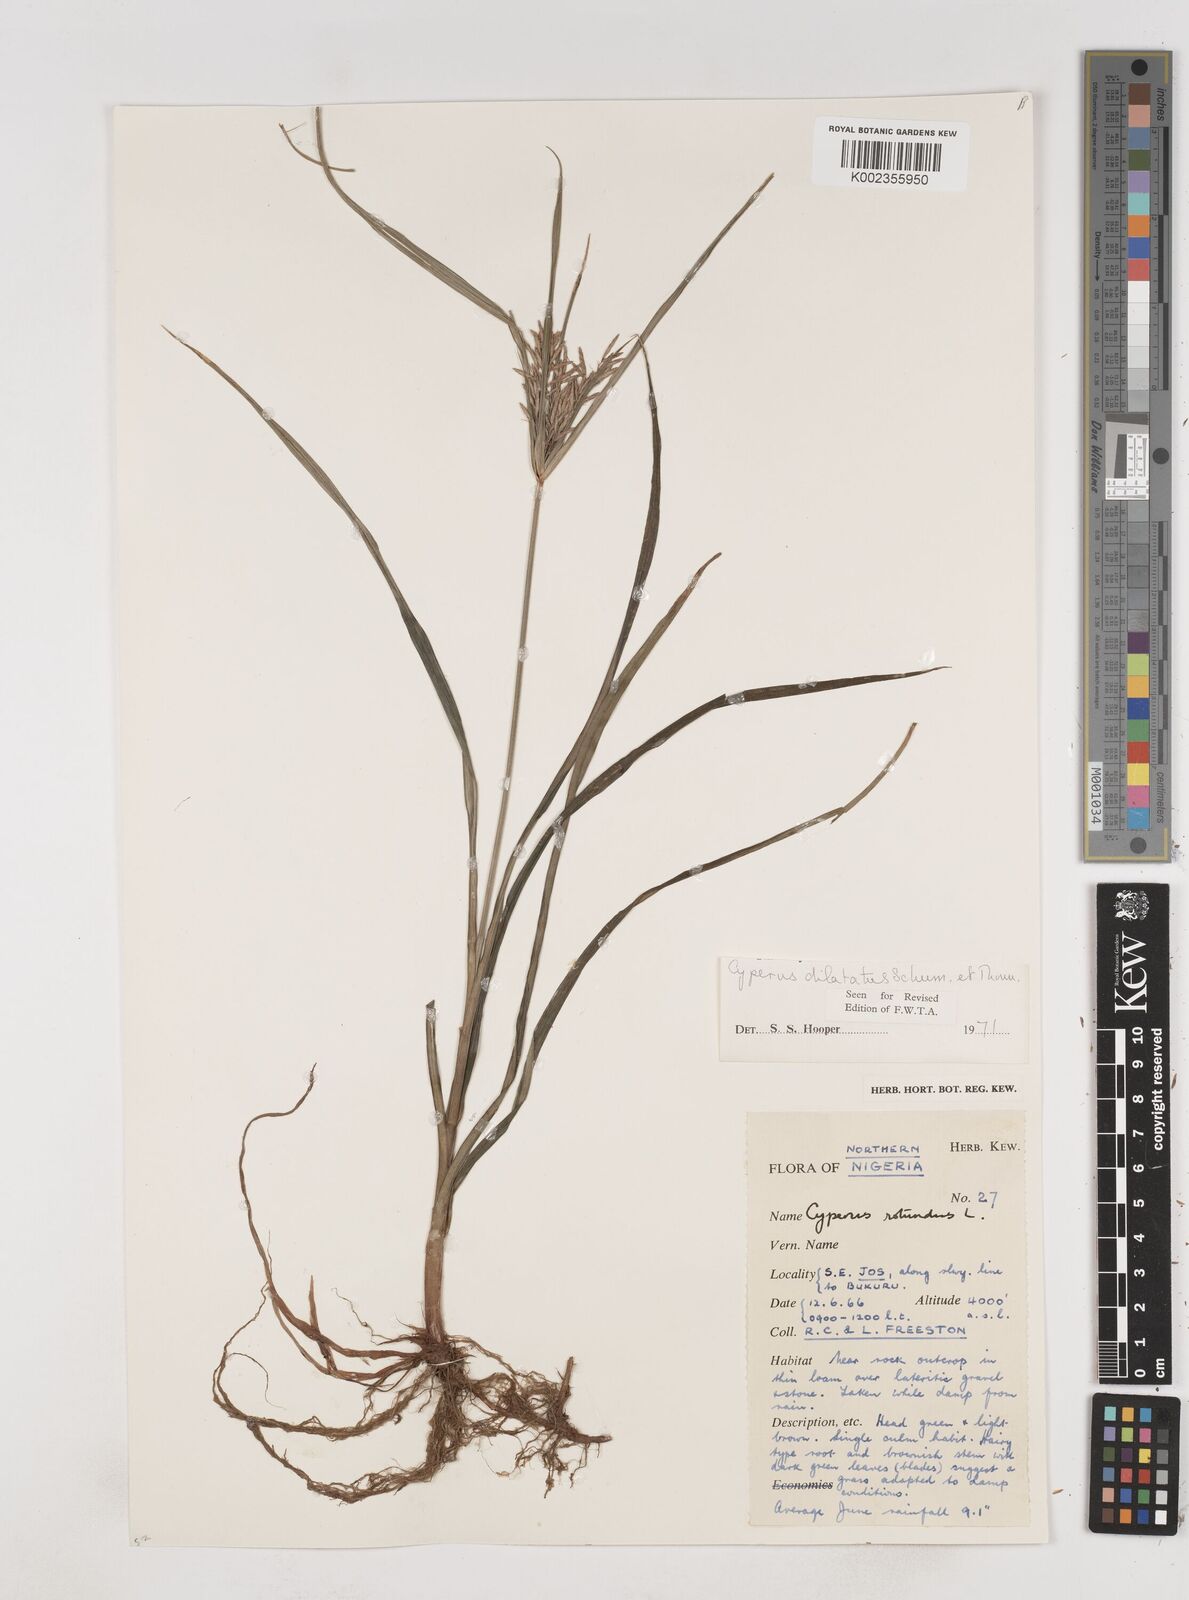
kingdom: Plantae
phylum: Tracheophyta
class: Liliopsida
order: Poales
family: Cyperaceae
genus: Cyperus
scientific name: Cyperus dilatatus
